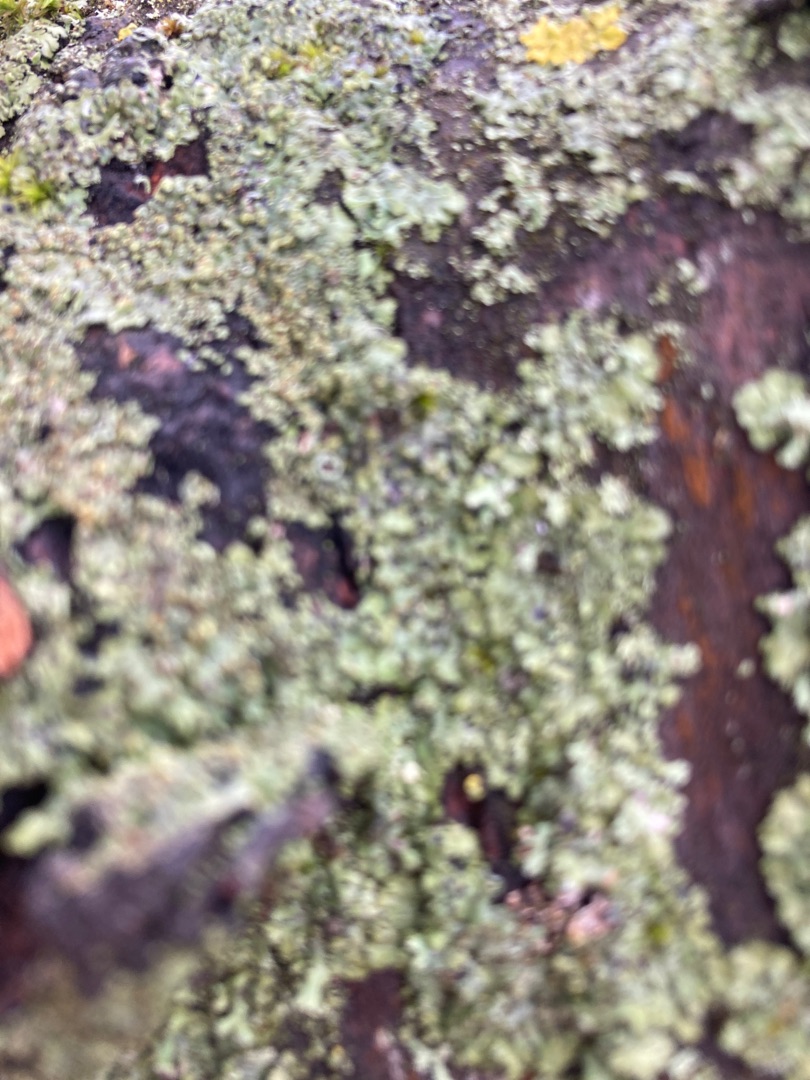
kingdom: Fungi
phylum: Ascomycota
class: Lecanoromycetes
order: Caliciales
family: Physciaceae
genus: Physcia
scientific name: Physcia
